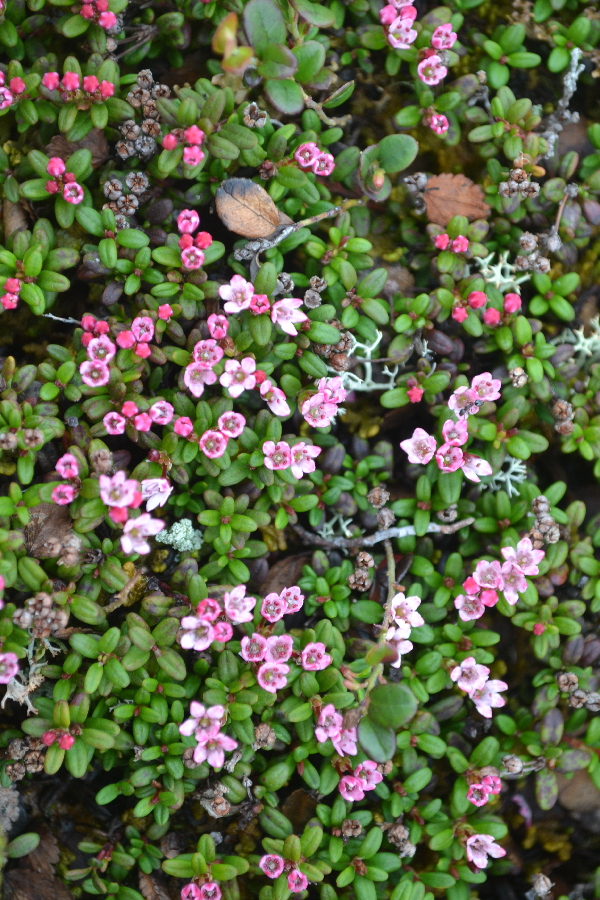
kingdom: Plantae
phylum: Tracheophyta
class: Magnoliopsida
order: Ericales
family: Ericaceae
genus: Kalmia
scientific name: Kalmia procumbens
